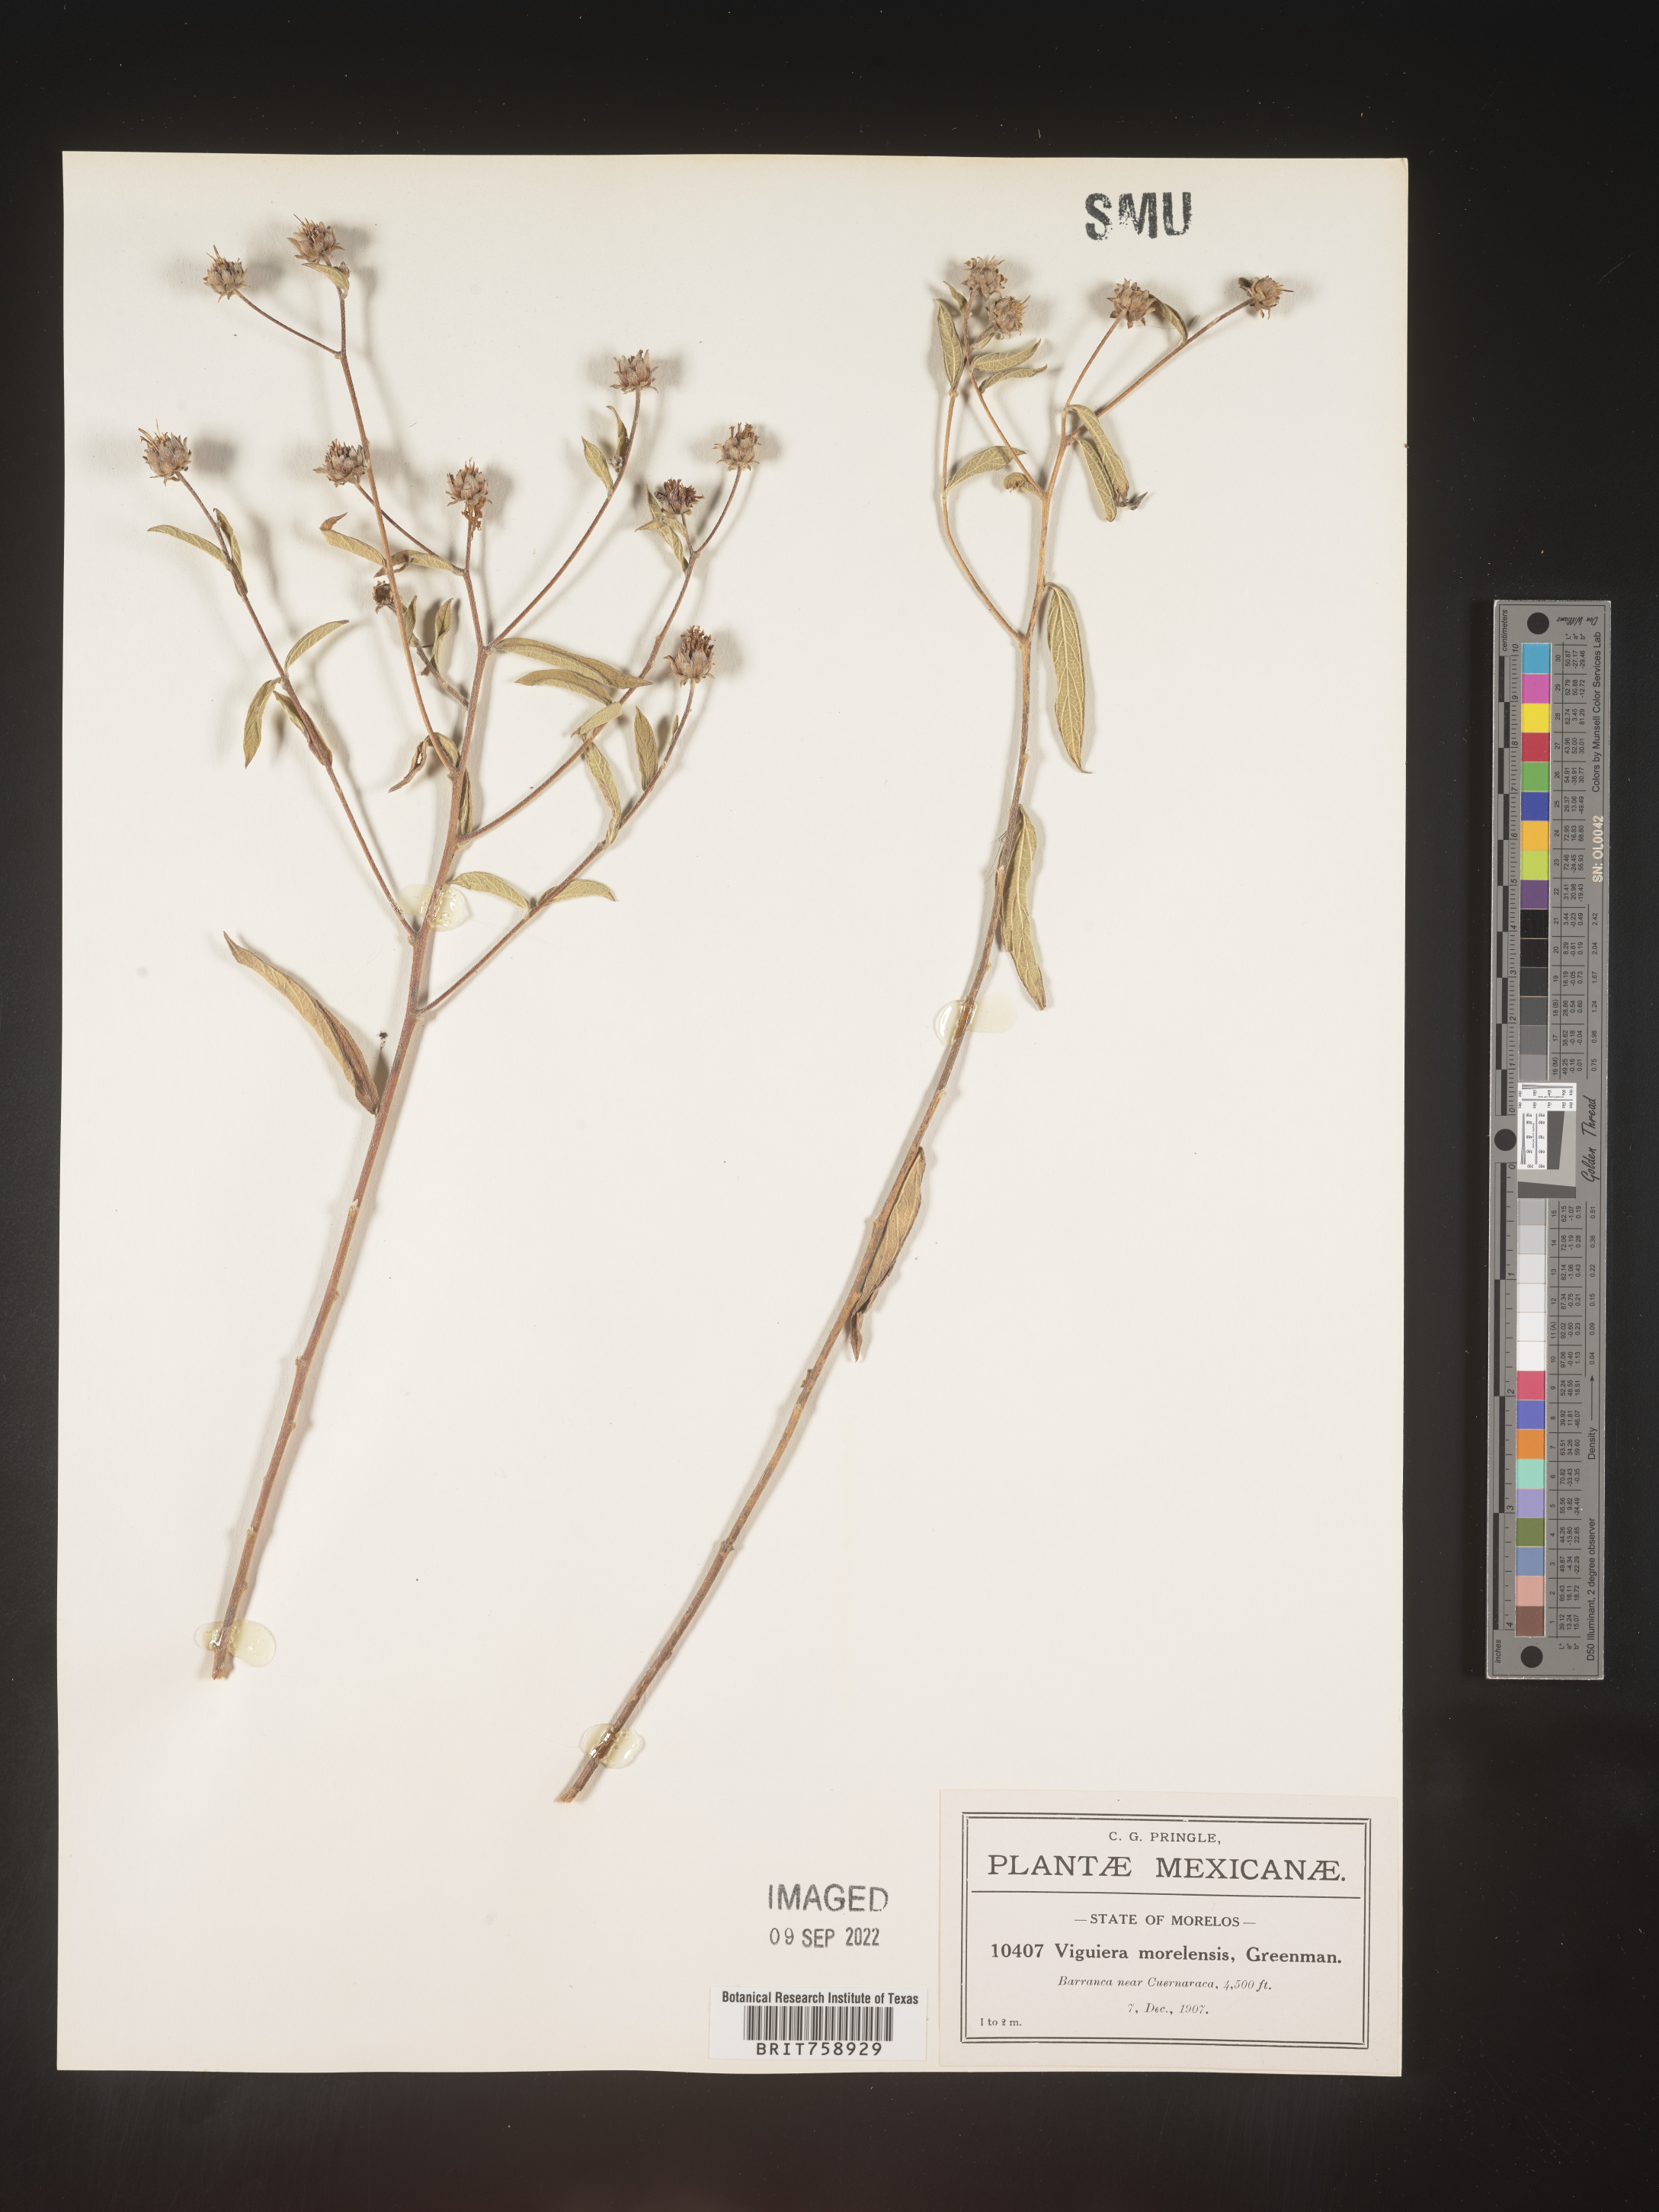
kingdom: Plantae
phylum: Tracheophyta
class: Magnoliopsida
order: Asterales
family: Asteraceae
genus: Viguiera
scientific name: Viguiera
